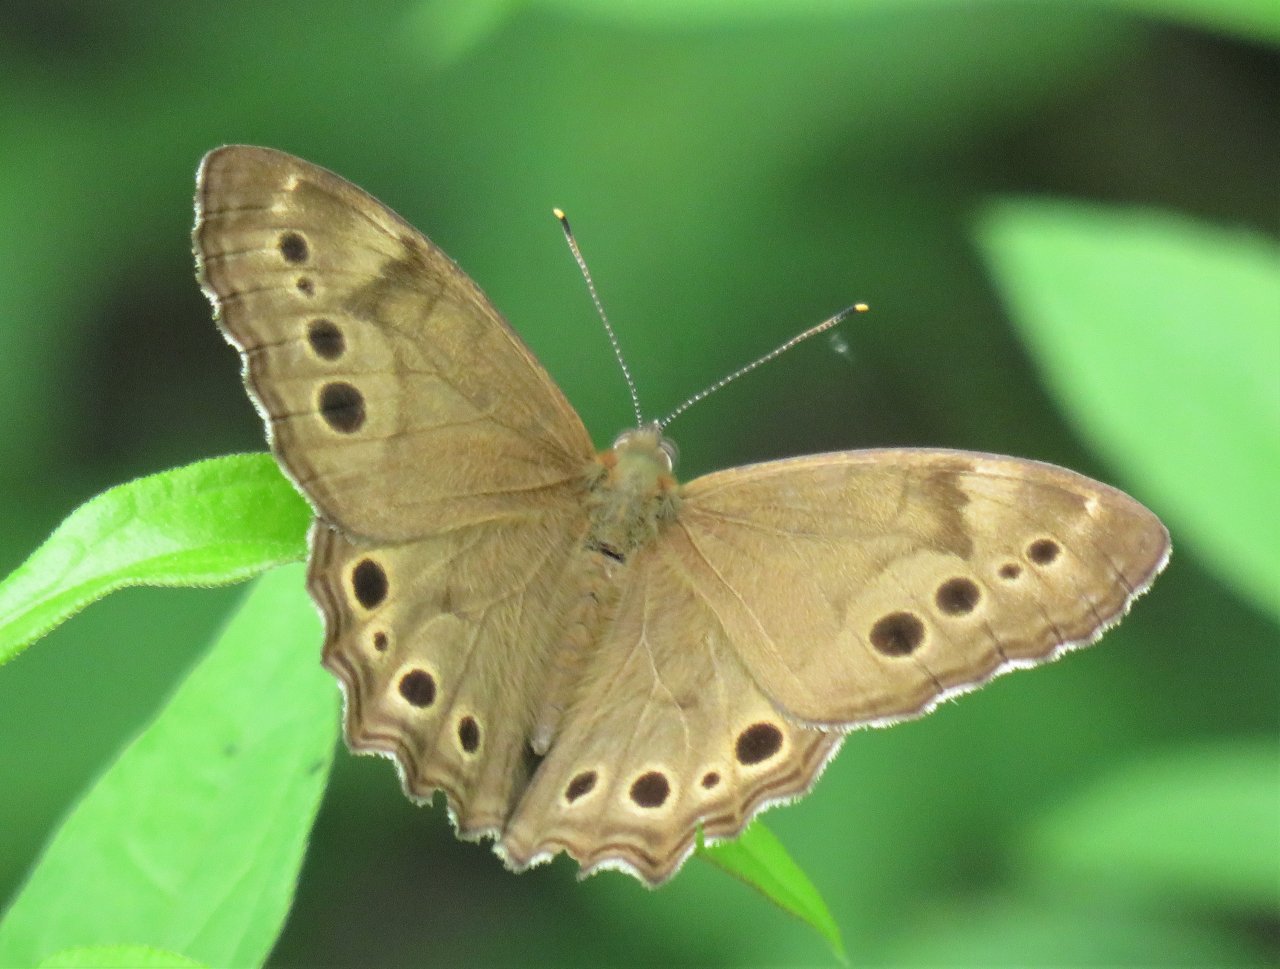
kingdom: Animalia
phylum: Arthropoda
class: Insecta
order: Lepidoptera
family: Nymphalidae
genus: Lethe
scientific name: Lethe anthedon
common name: Northern Pearly-Eye
